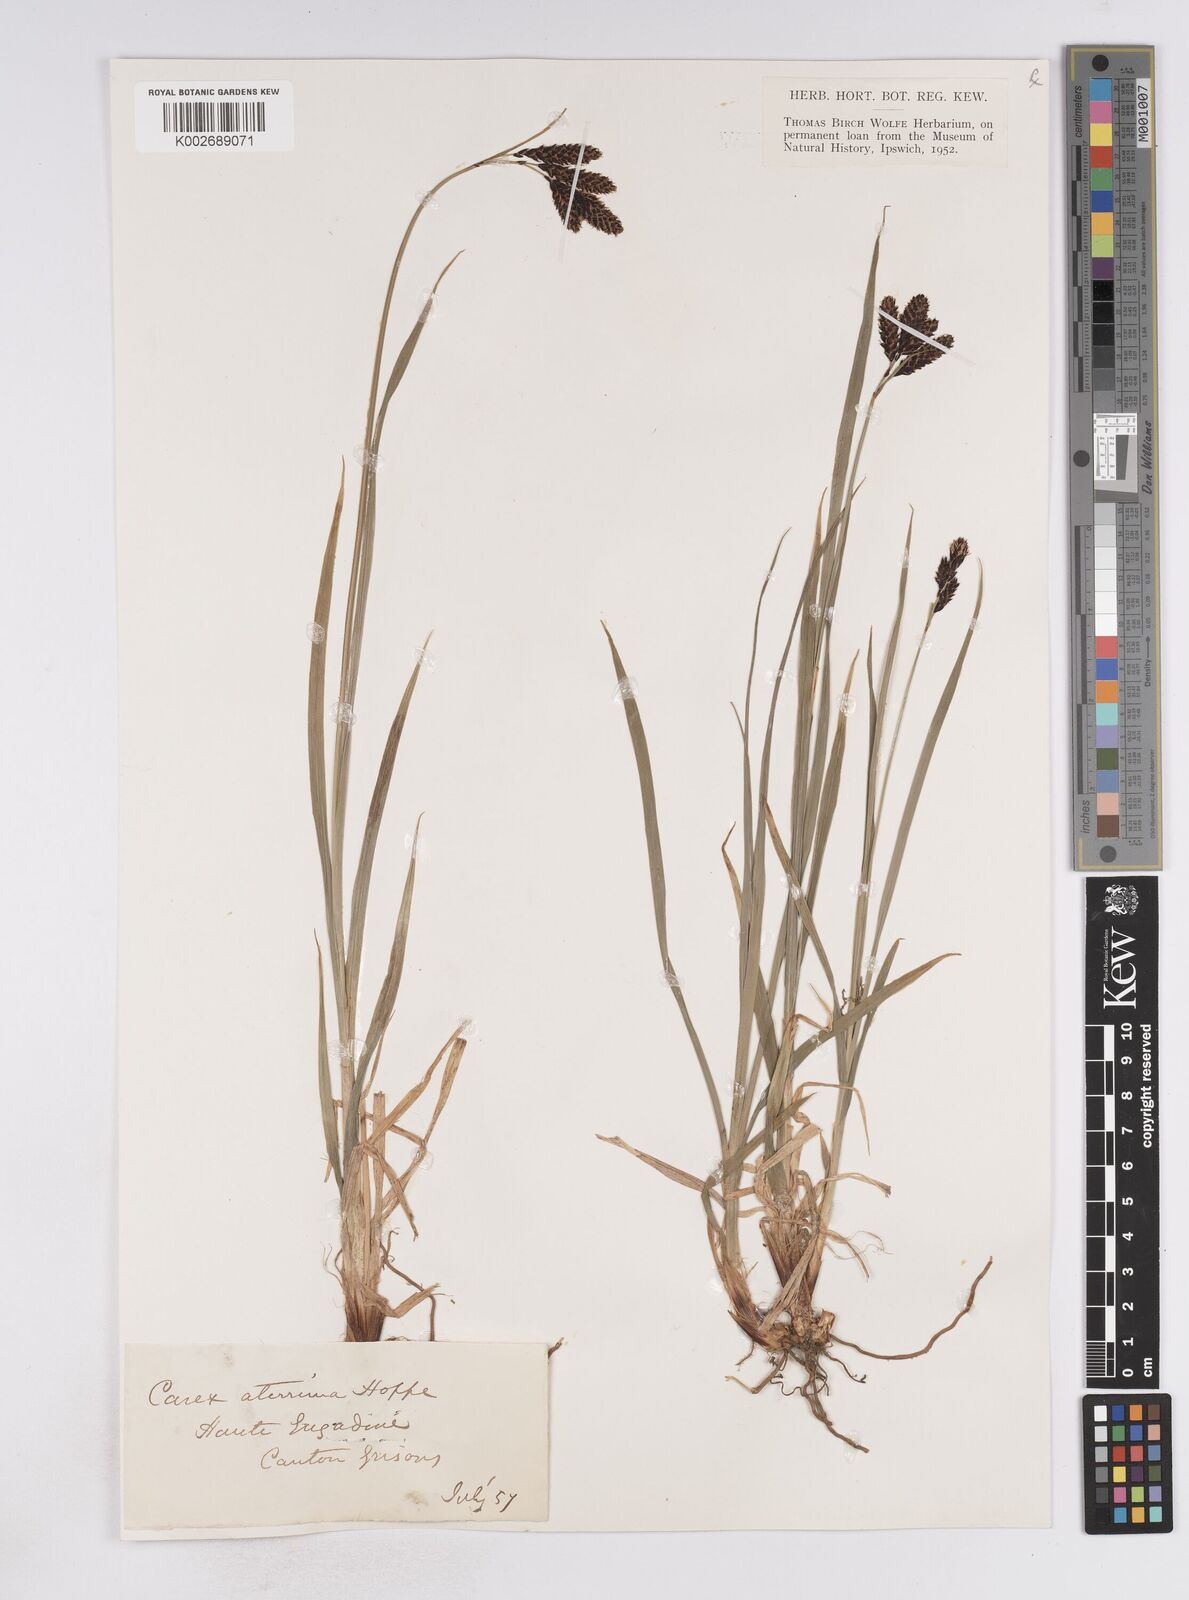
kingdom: Plantae
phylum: Tracheophyta
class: Liliopsida
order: Poales
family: Cyperaceae
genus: Carex
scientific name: Carex atrata
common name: Black alpine sedge
